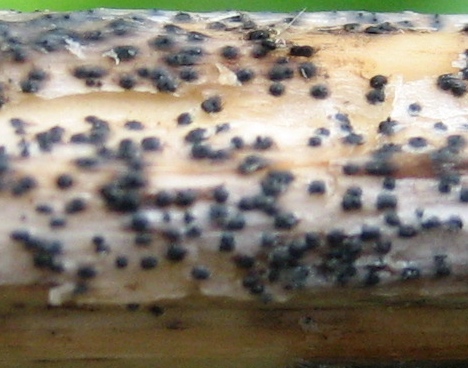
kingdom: Fungi
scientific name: Fungi
